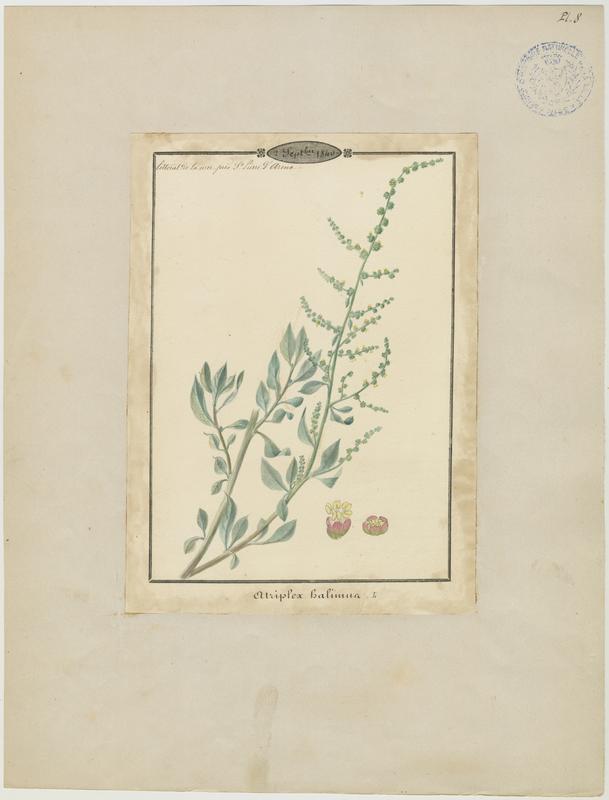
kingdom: Plantae
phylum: Tracheophyta
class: Magnoliopsida
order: Caryophyllales
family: Amaranthaceae
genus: Atriplex
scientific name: Atriplex halimus
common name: Shrubby orache
